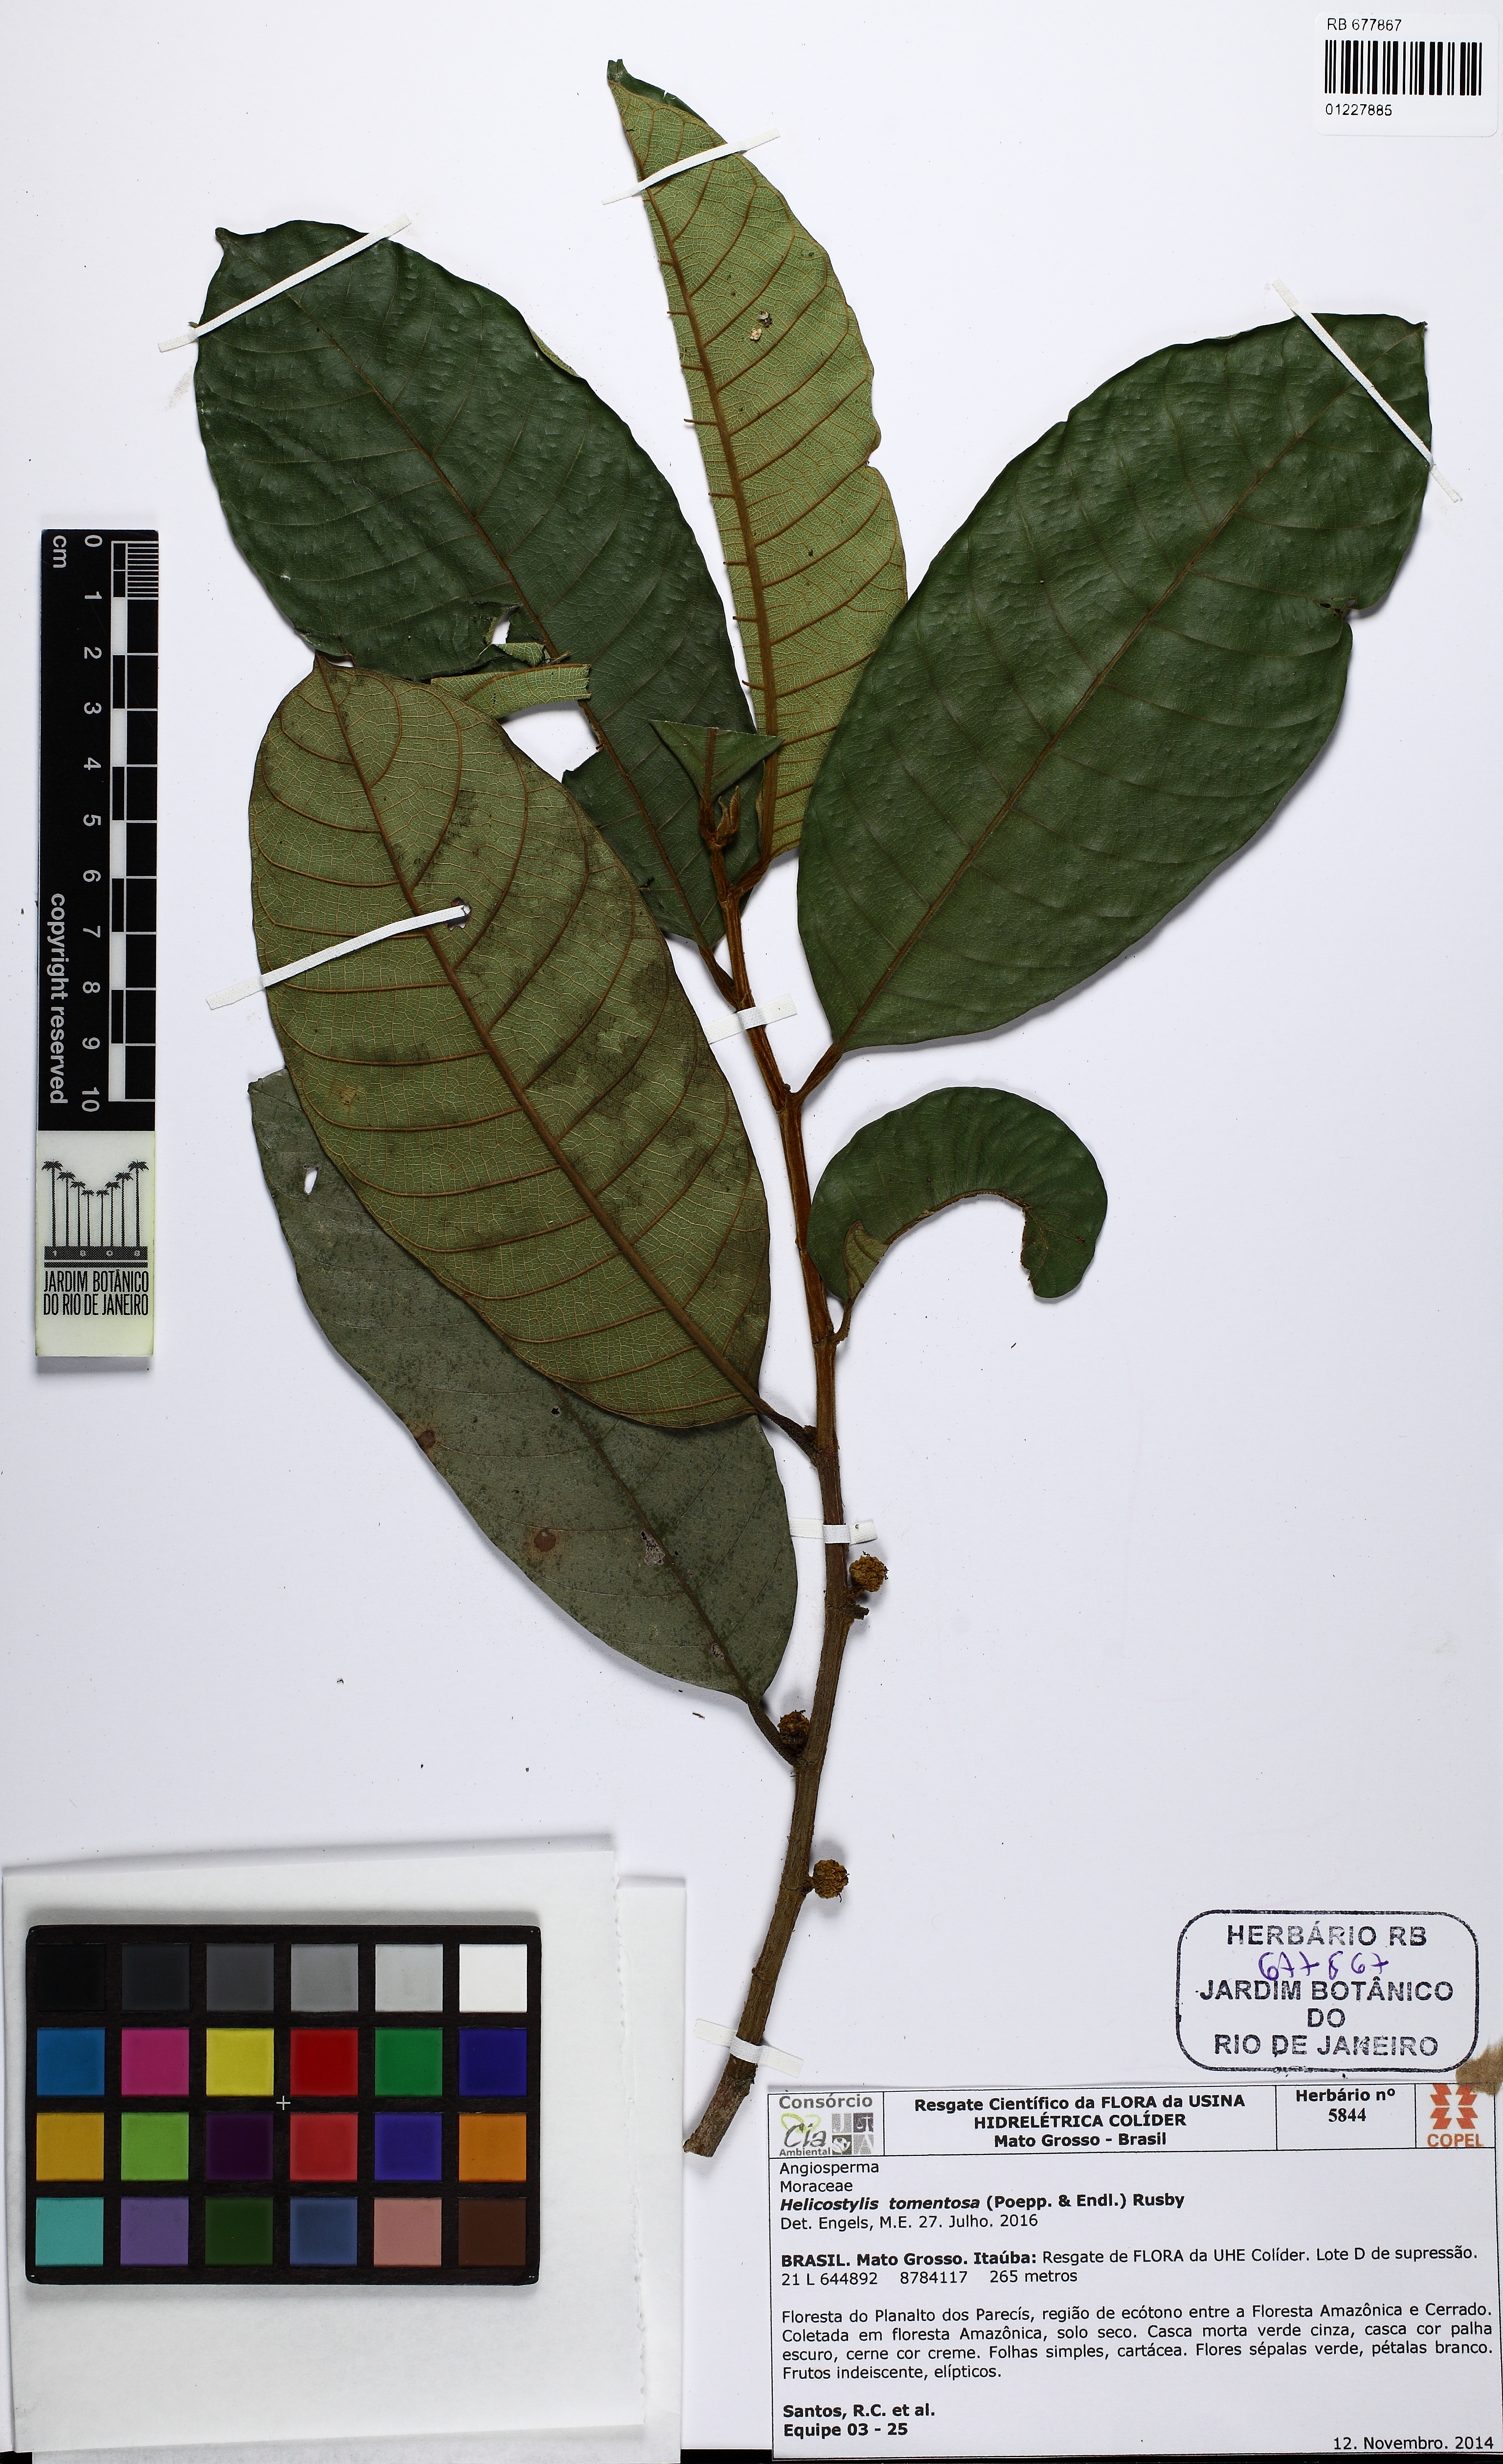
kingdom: Plantae
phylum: Tracheophyta
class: Magnoliopsida
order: Rosales
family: Moraceae
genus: Helicostylis
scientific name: Helicostylis tomentosa
